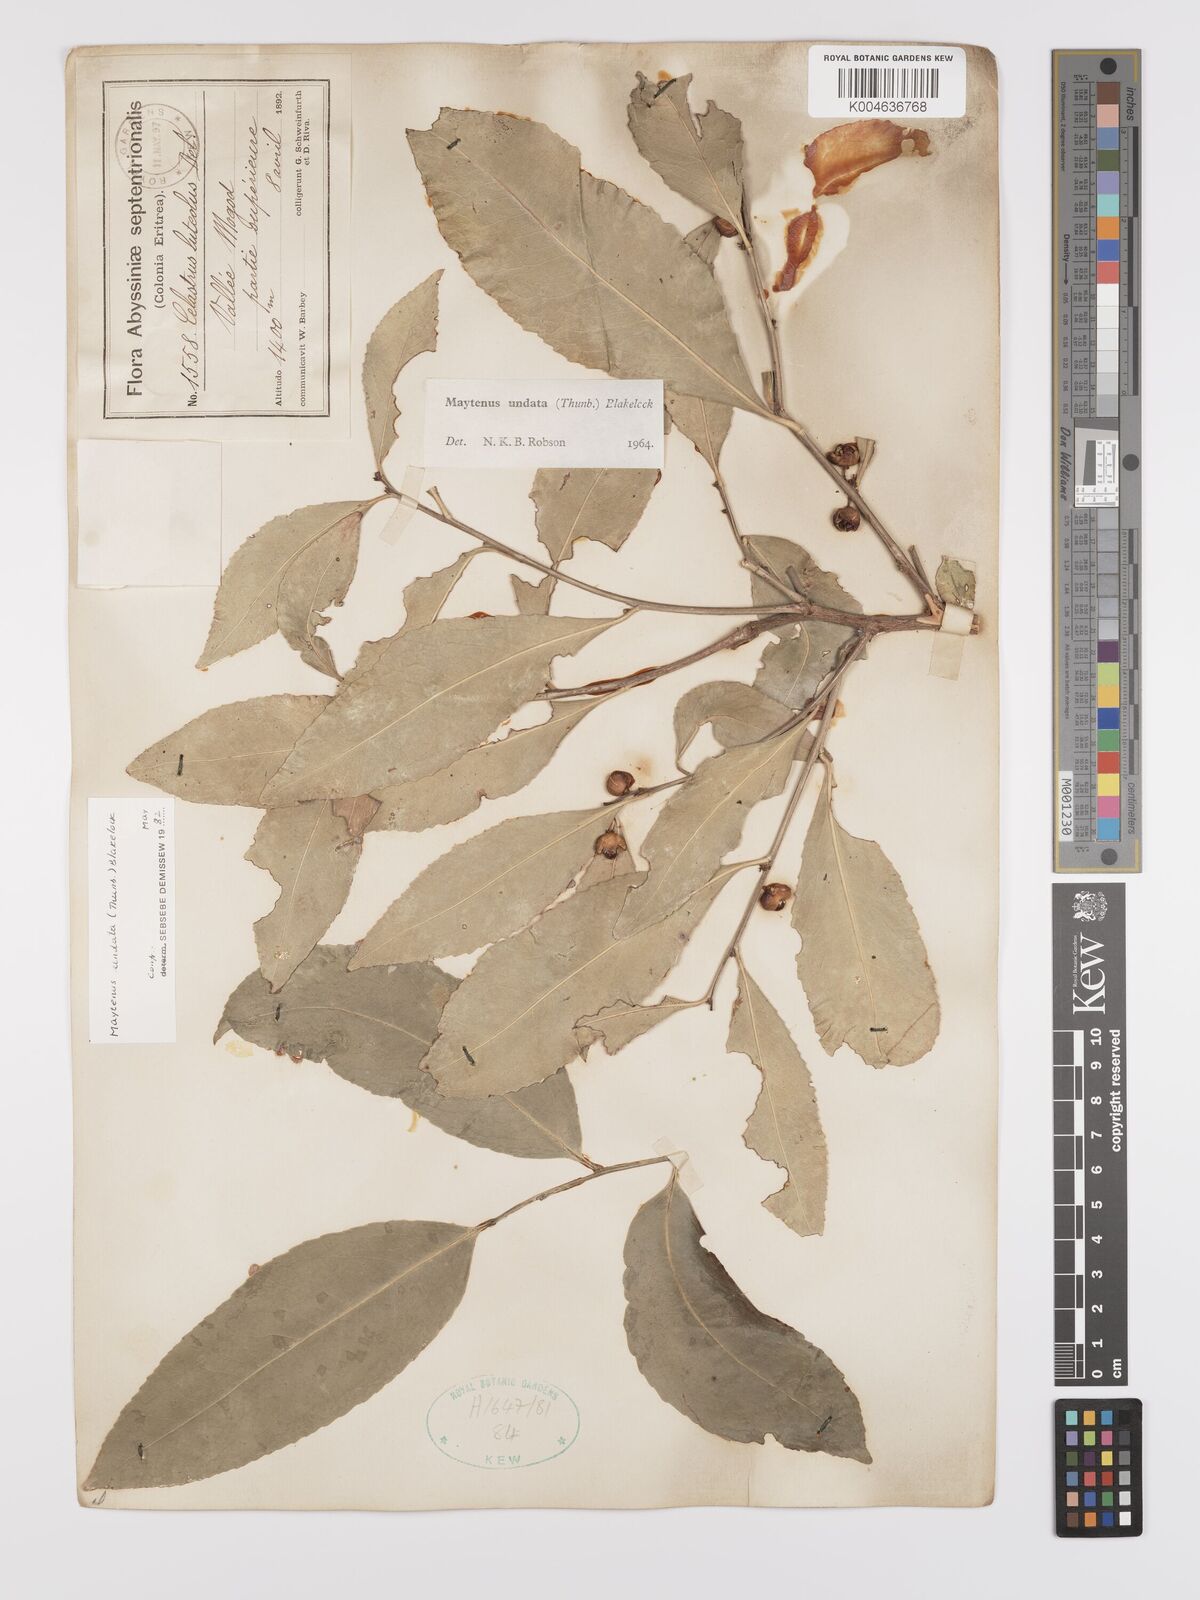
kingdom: Plantae
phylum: Tracheophyta
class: Magnoliopsida
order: Celastrales
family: Celastraceae
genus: Gymnosporia
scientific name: Gymnosporia undata
